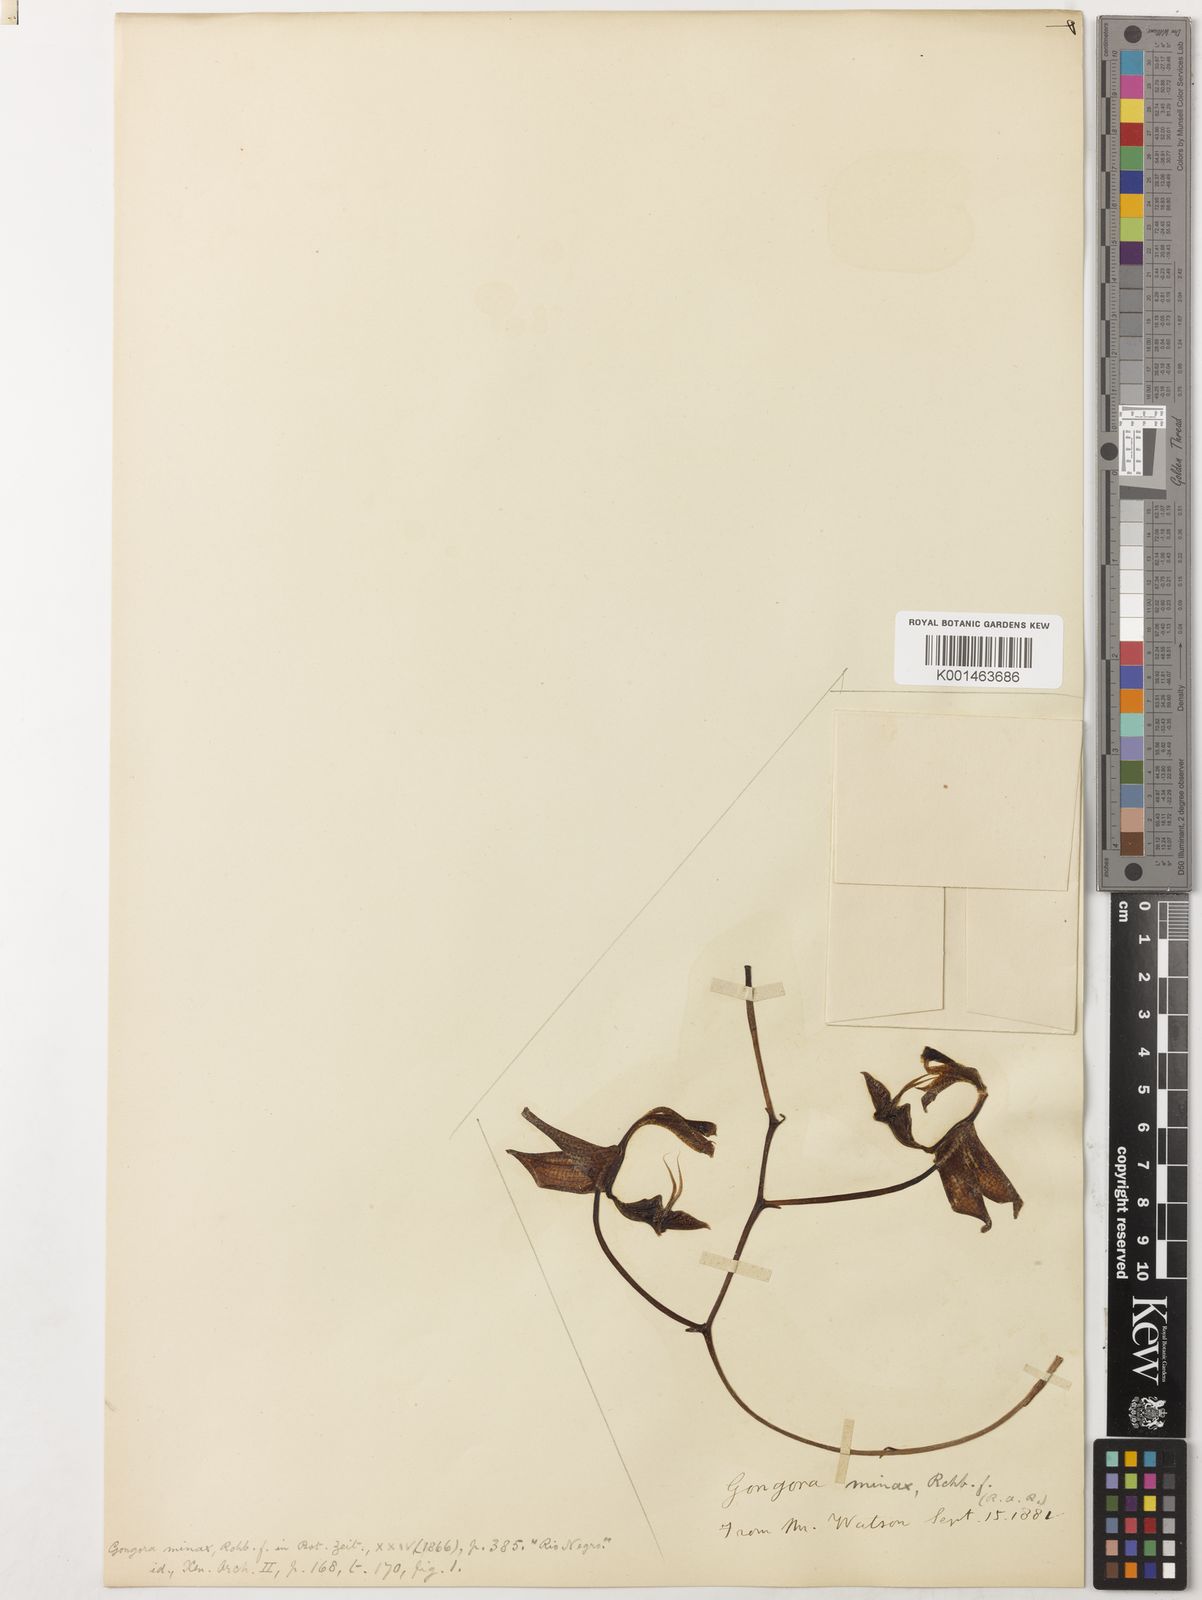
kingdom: Plantae
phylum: Tracheophyta
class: Liliopsida
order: Asparagales
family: Orchidaceae
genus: Gongora
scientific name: Gongora minax
